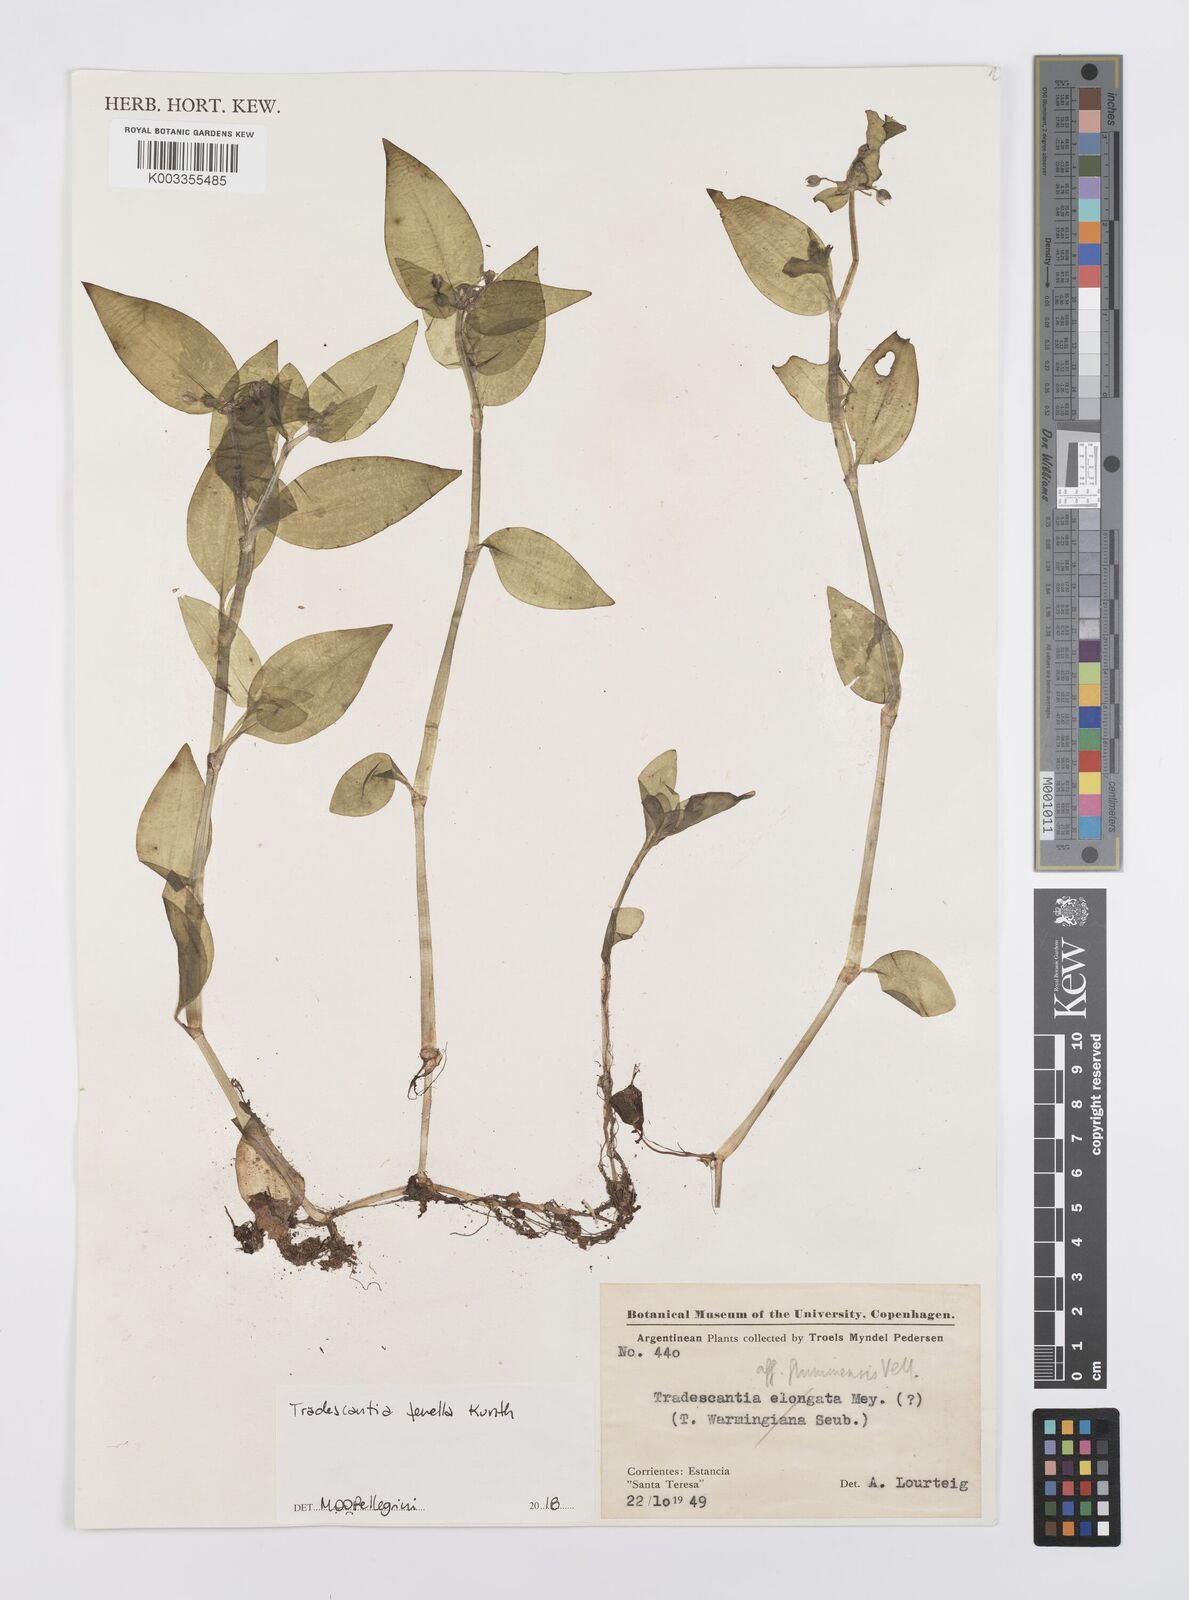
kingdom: Plantae
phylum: Tracheophyta
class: Liliopsida
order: Commelinales
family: Commelinaceae
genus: Tradescantia
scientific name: Tradescantia tenella
